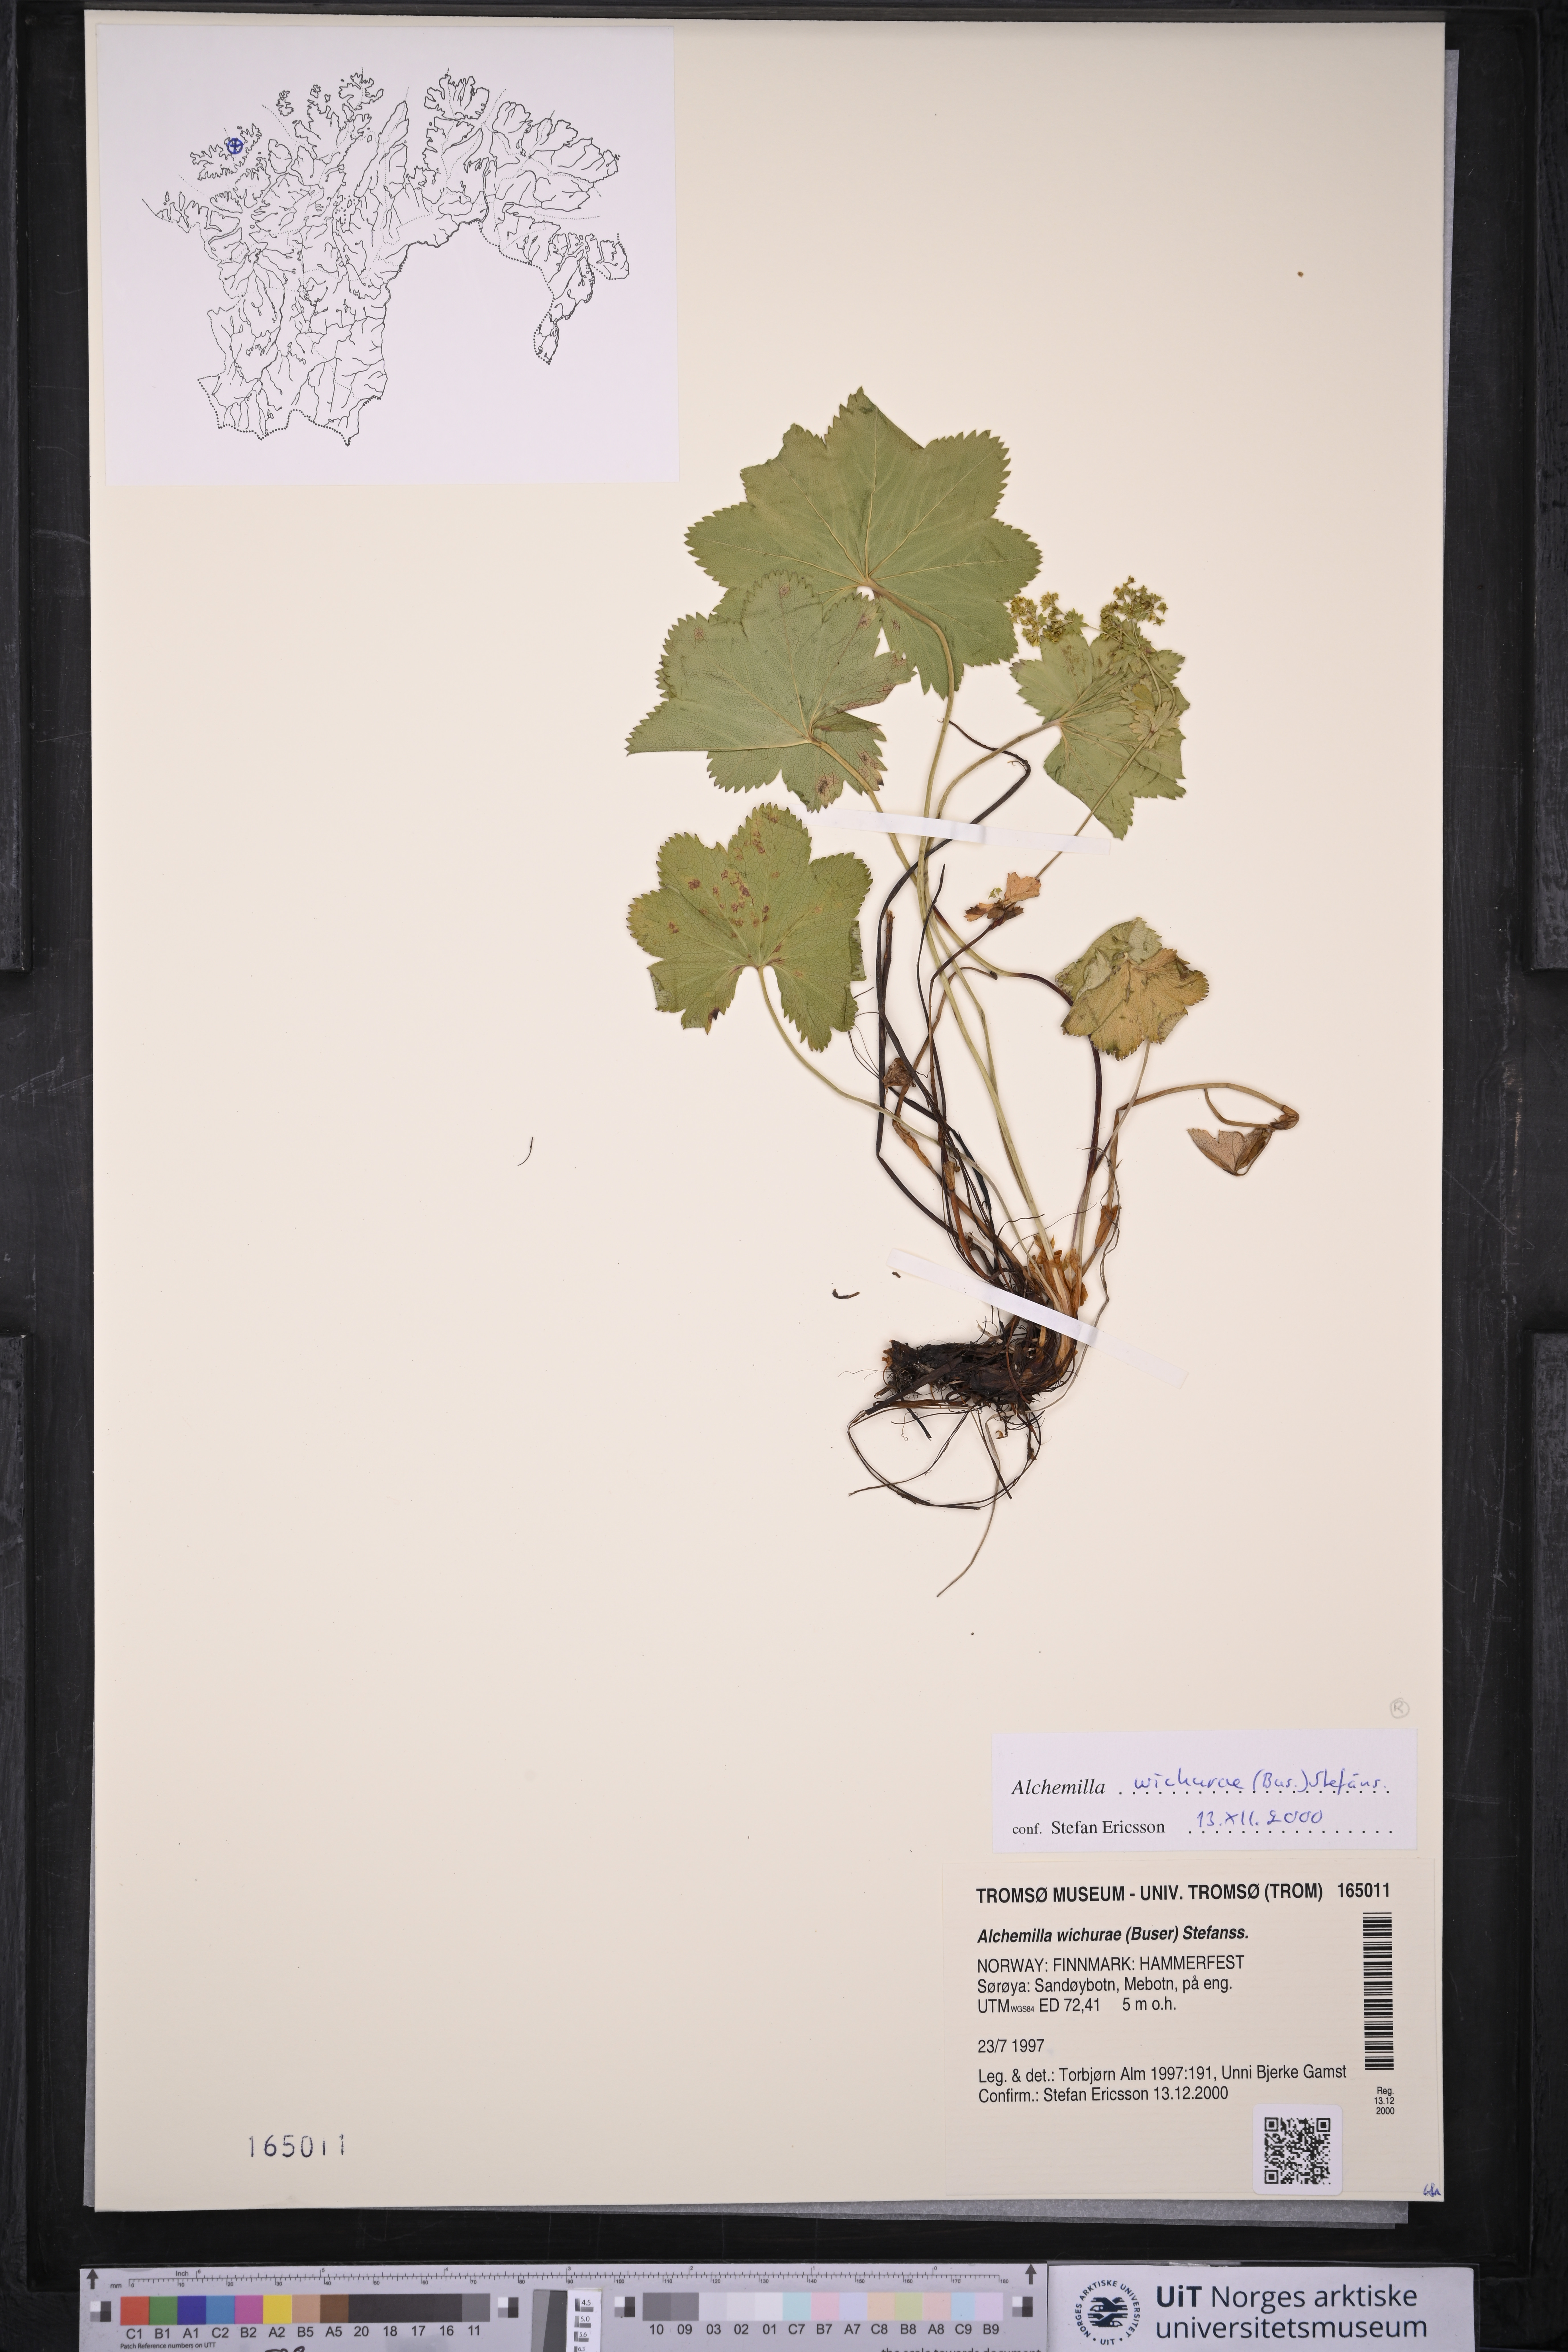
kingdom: Plantae
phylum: Tracheophyta
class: Magnoliopsida
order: Rosales
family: Rosaceae
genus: Alchemilla
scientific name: Alchemilla wichurae
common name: Rock lady's mantle
